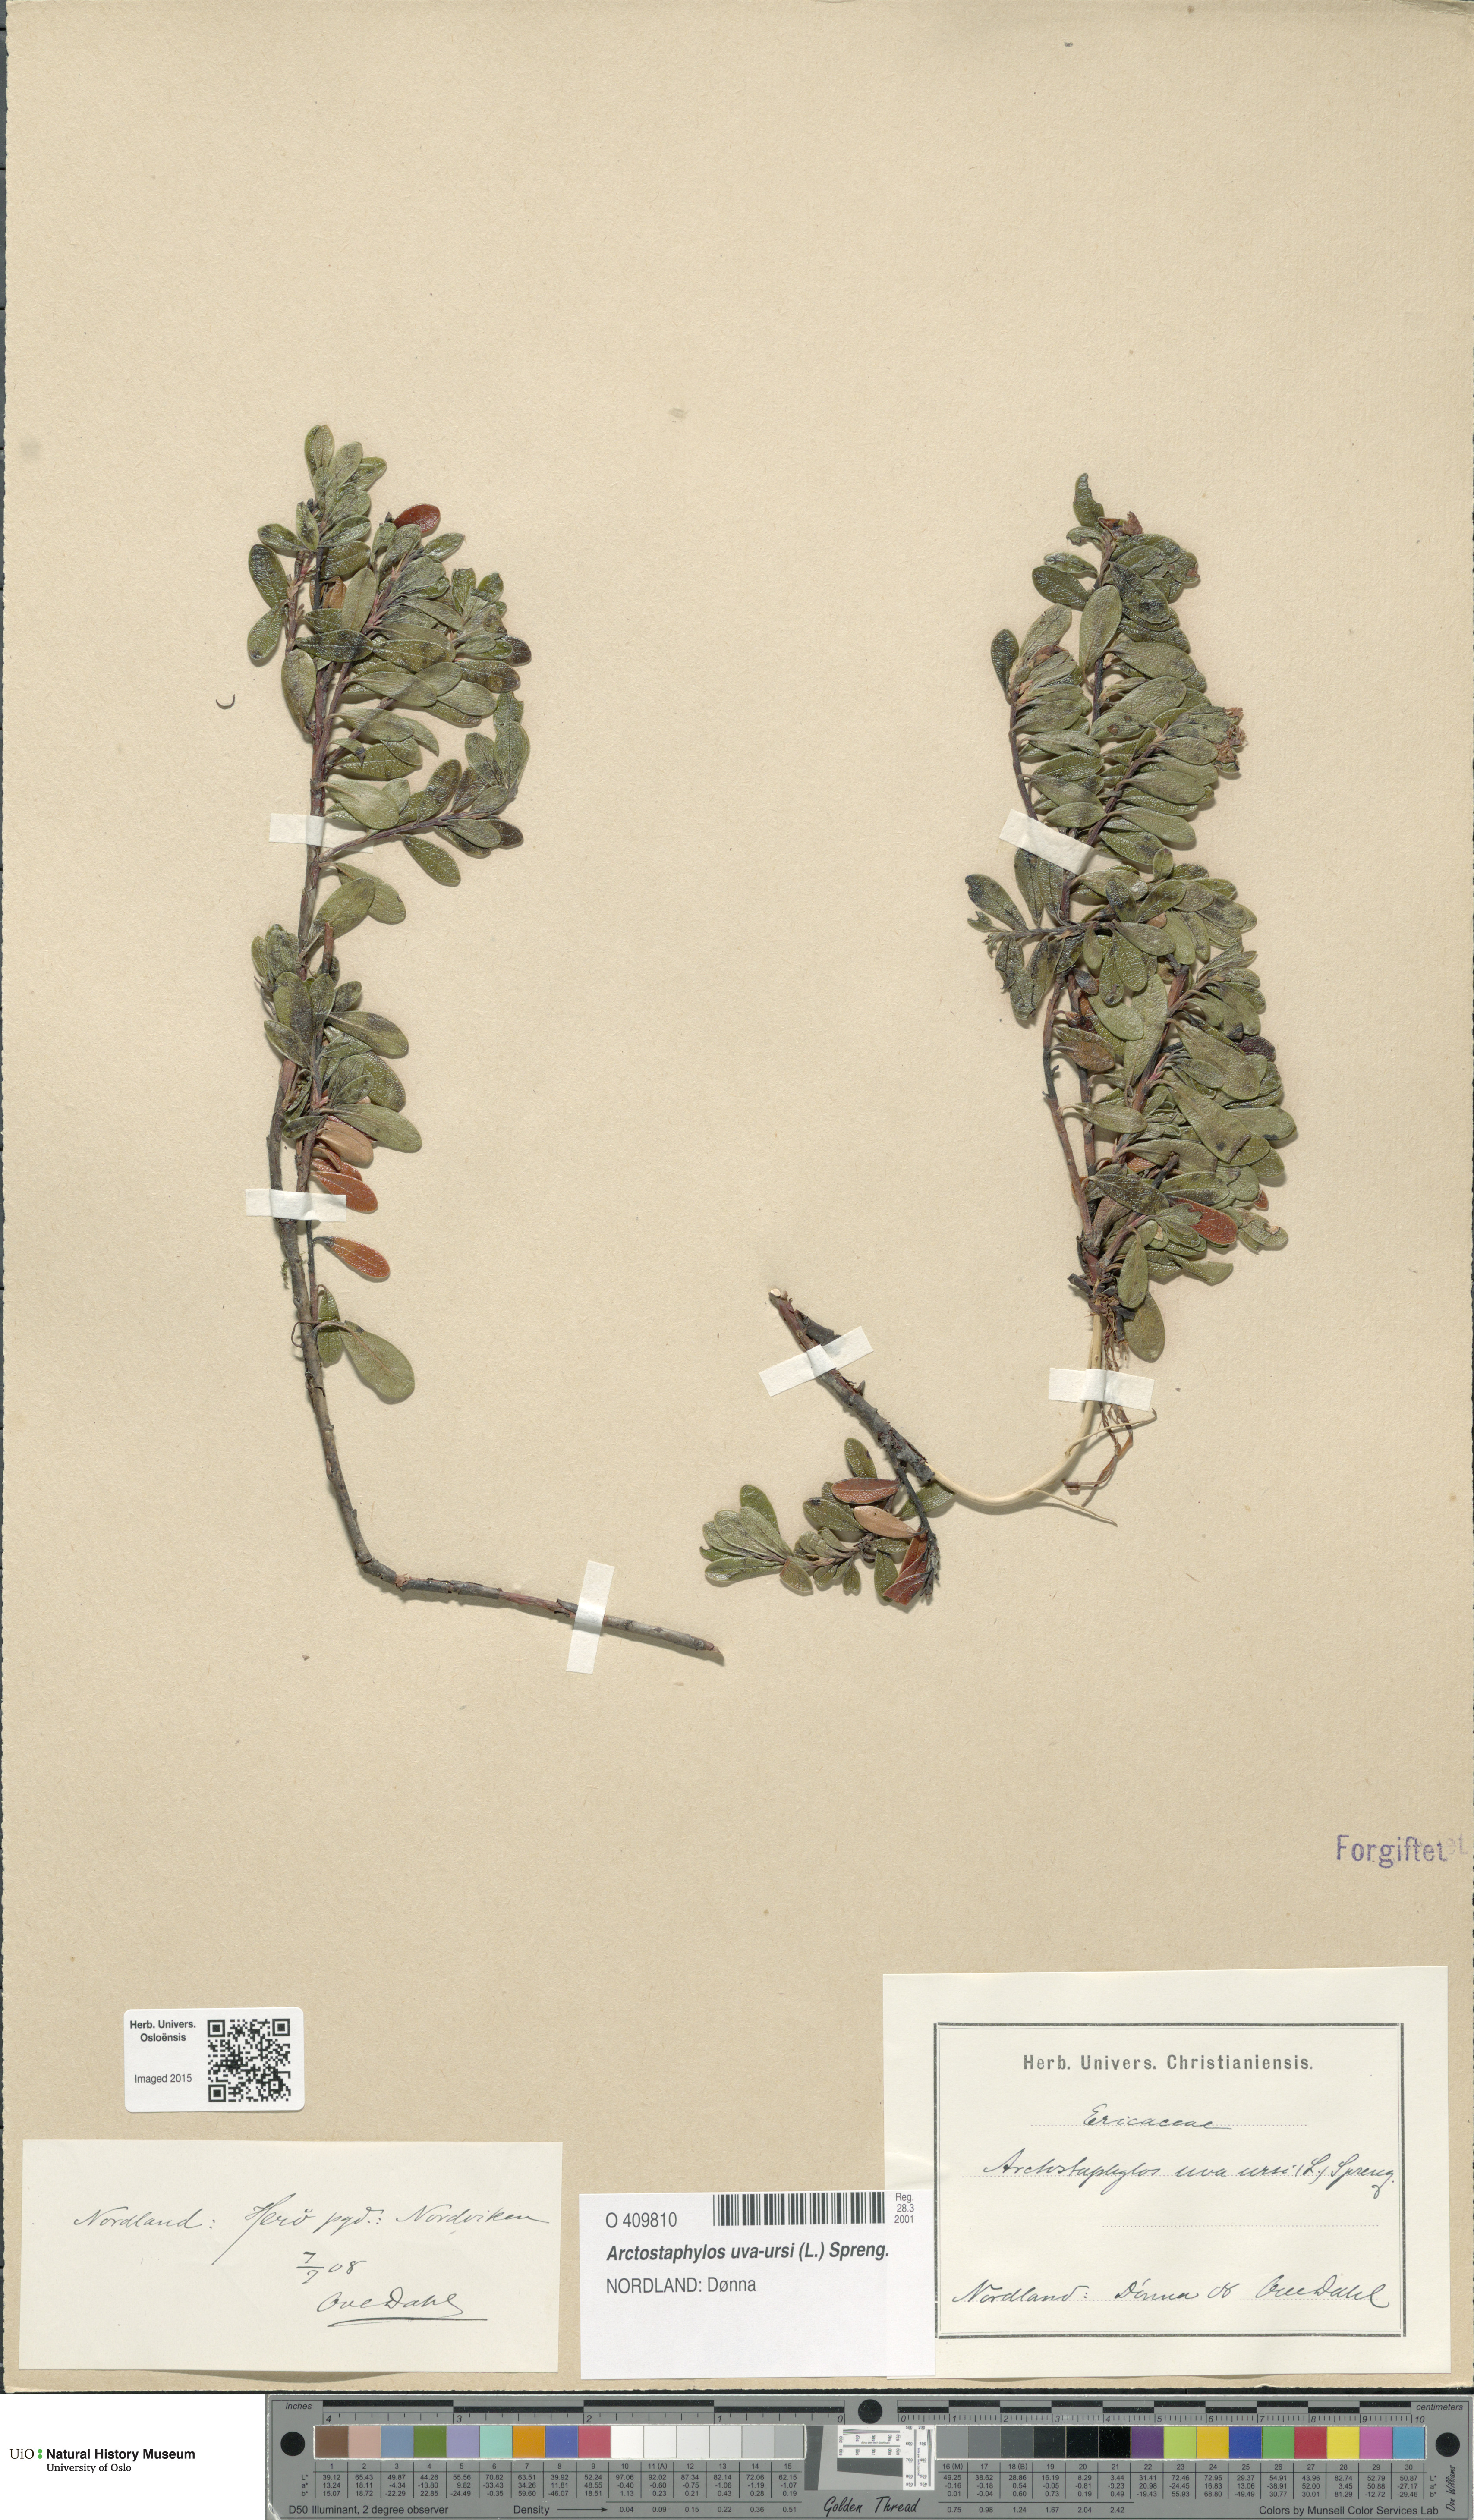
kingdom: Plantae
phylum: Tracheophyta
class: Magnoliopsida
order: Ericales
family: Ericaceae
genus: Arctostaphylos
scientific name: Arctostaphylos uva-ursi
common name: Bearberry
